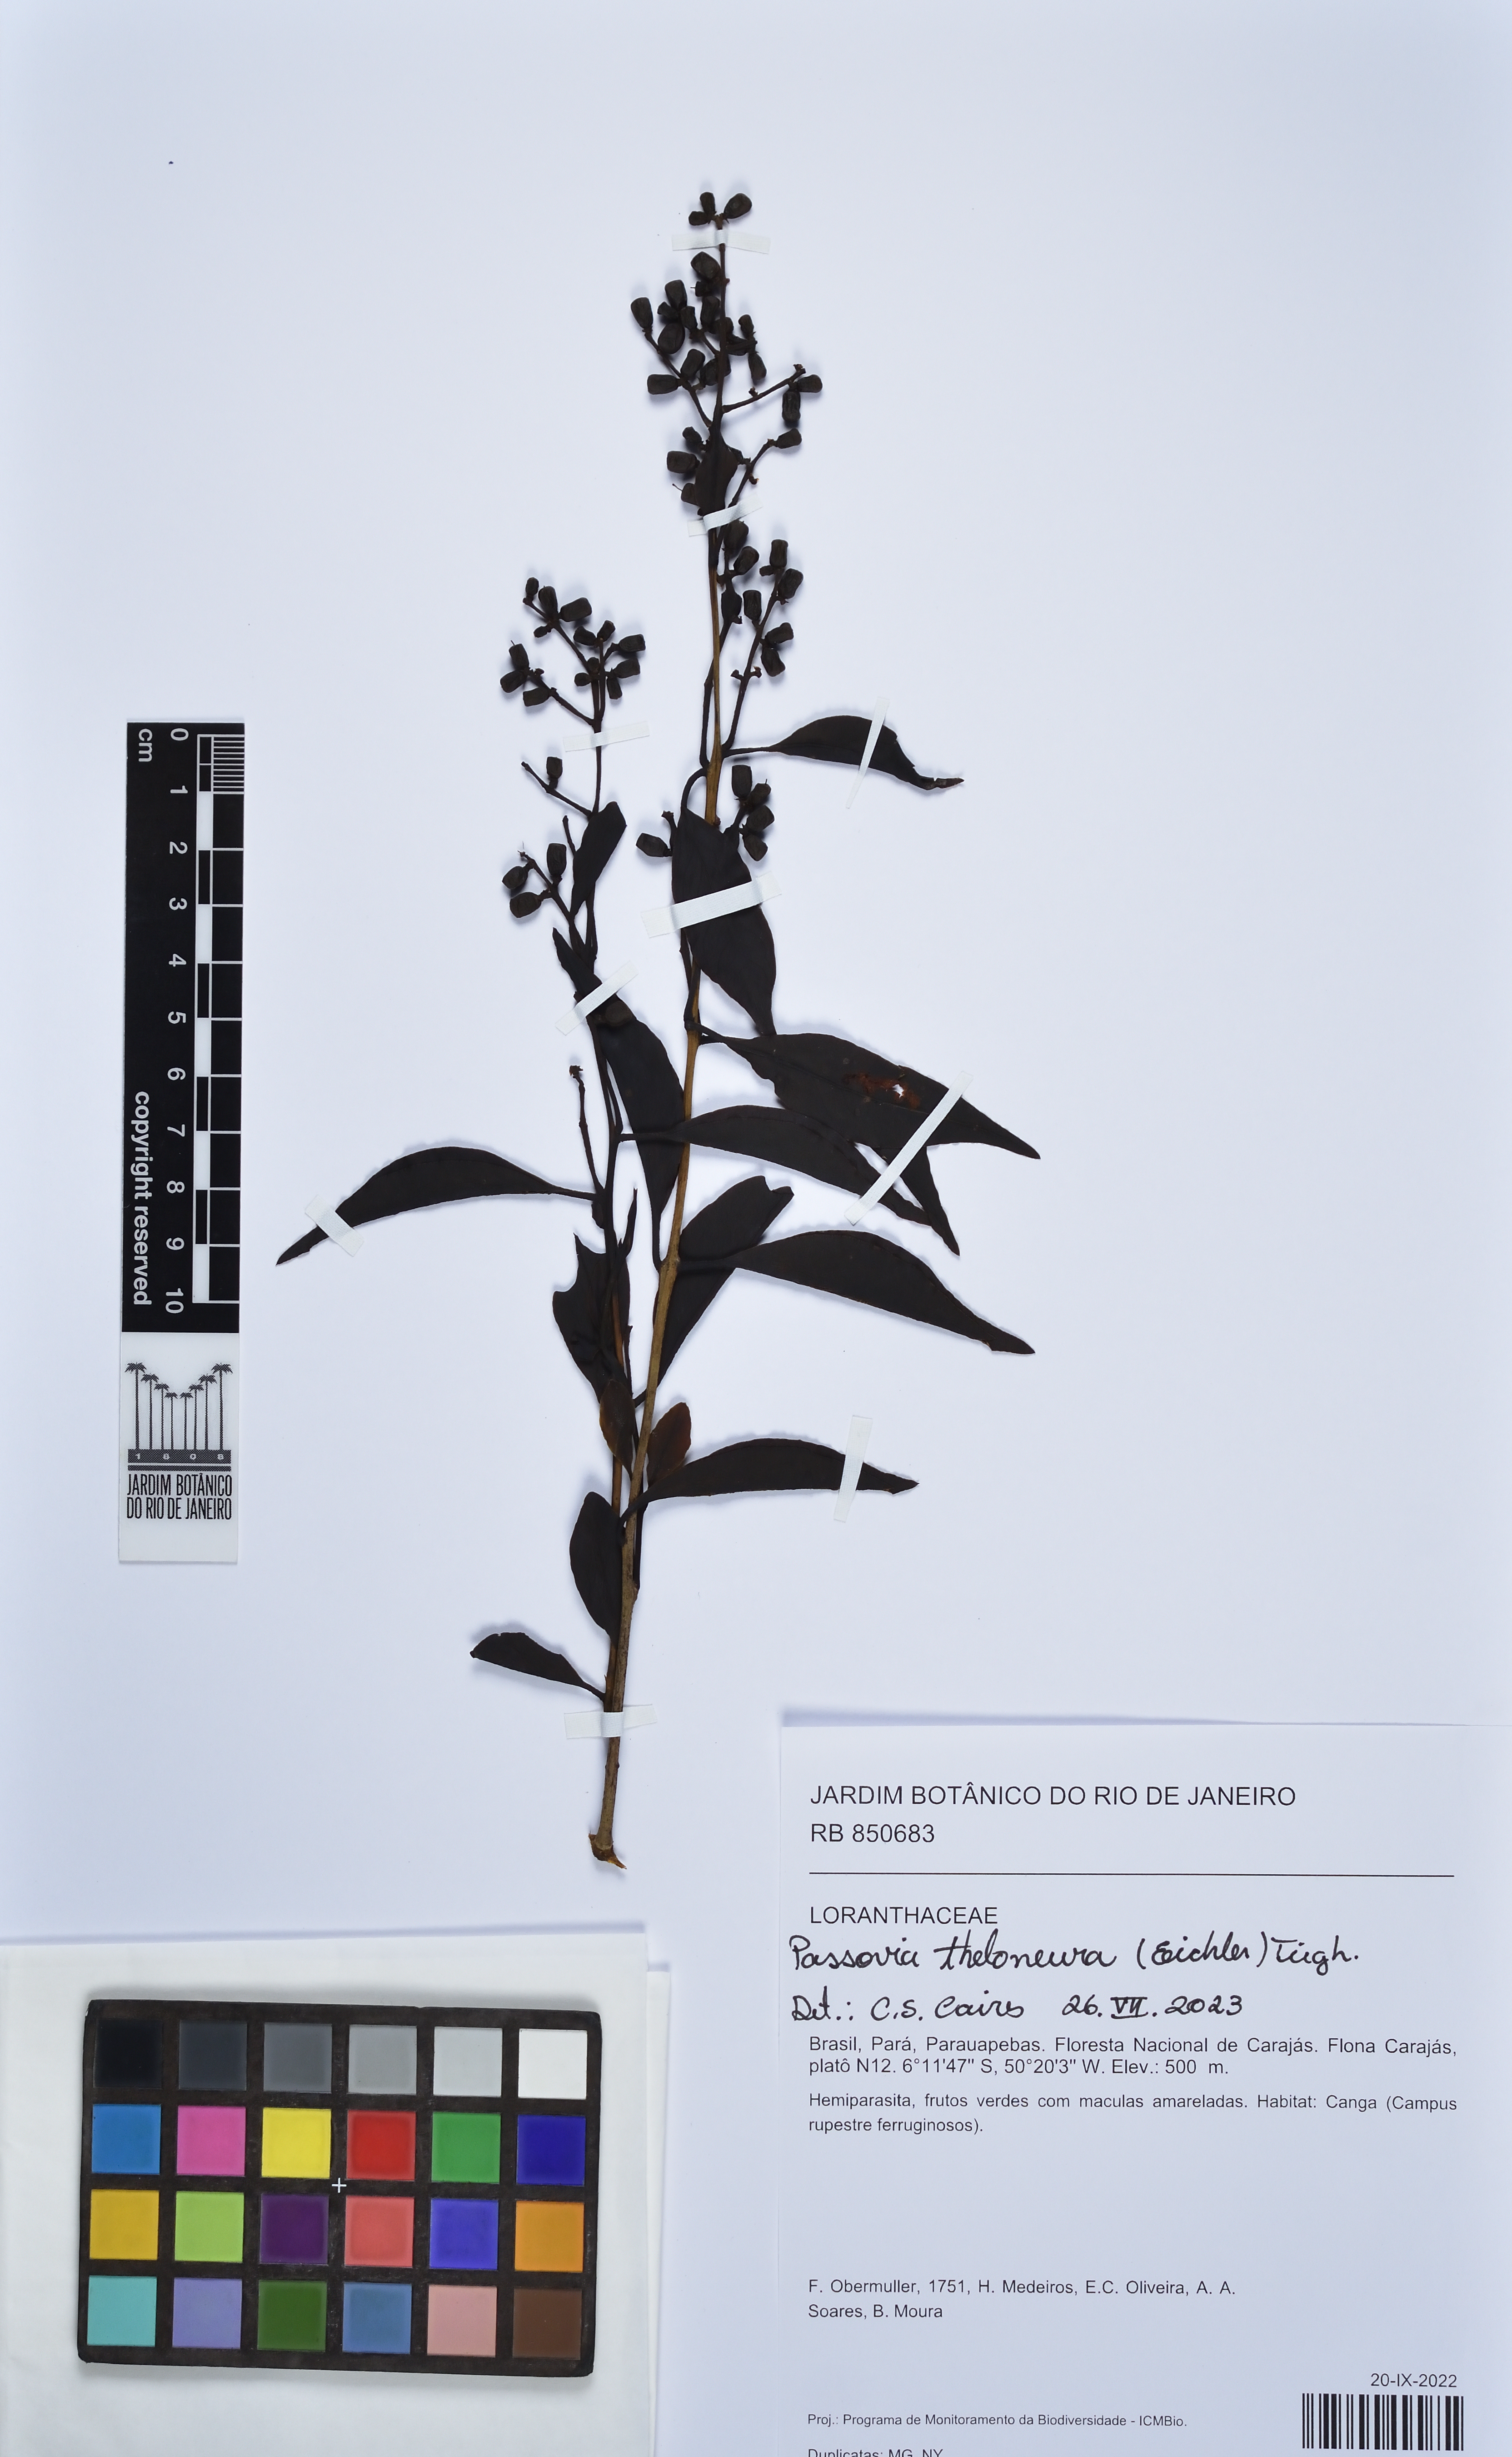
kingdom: Plantae
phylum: Tracheophyta
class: Magnoliopsida
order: Santalales
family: Loranthaceae
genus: Passovia
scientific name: Passovia theloneura
